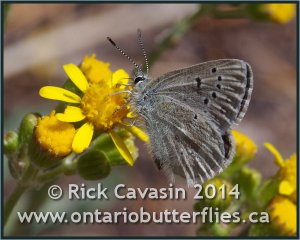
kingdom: Animalia
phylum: Arthropoda
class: Insecta
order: Lepidoptera
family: Lycaenidae
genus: Agriades
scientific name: Agriades glandon
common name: Arctic Blue
